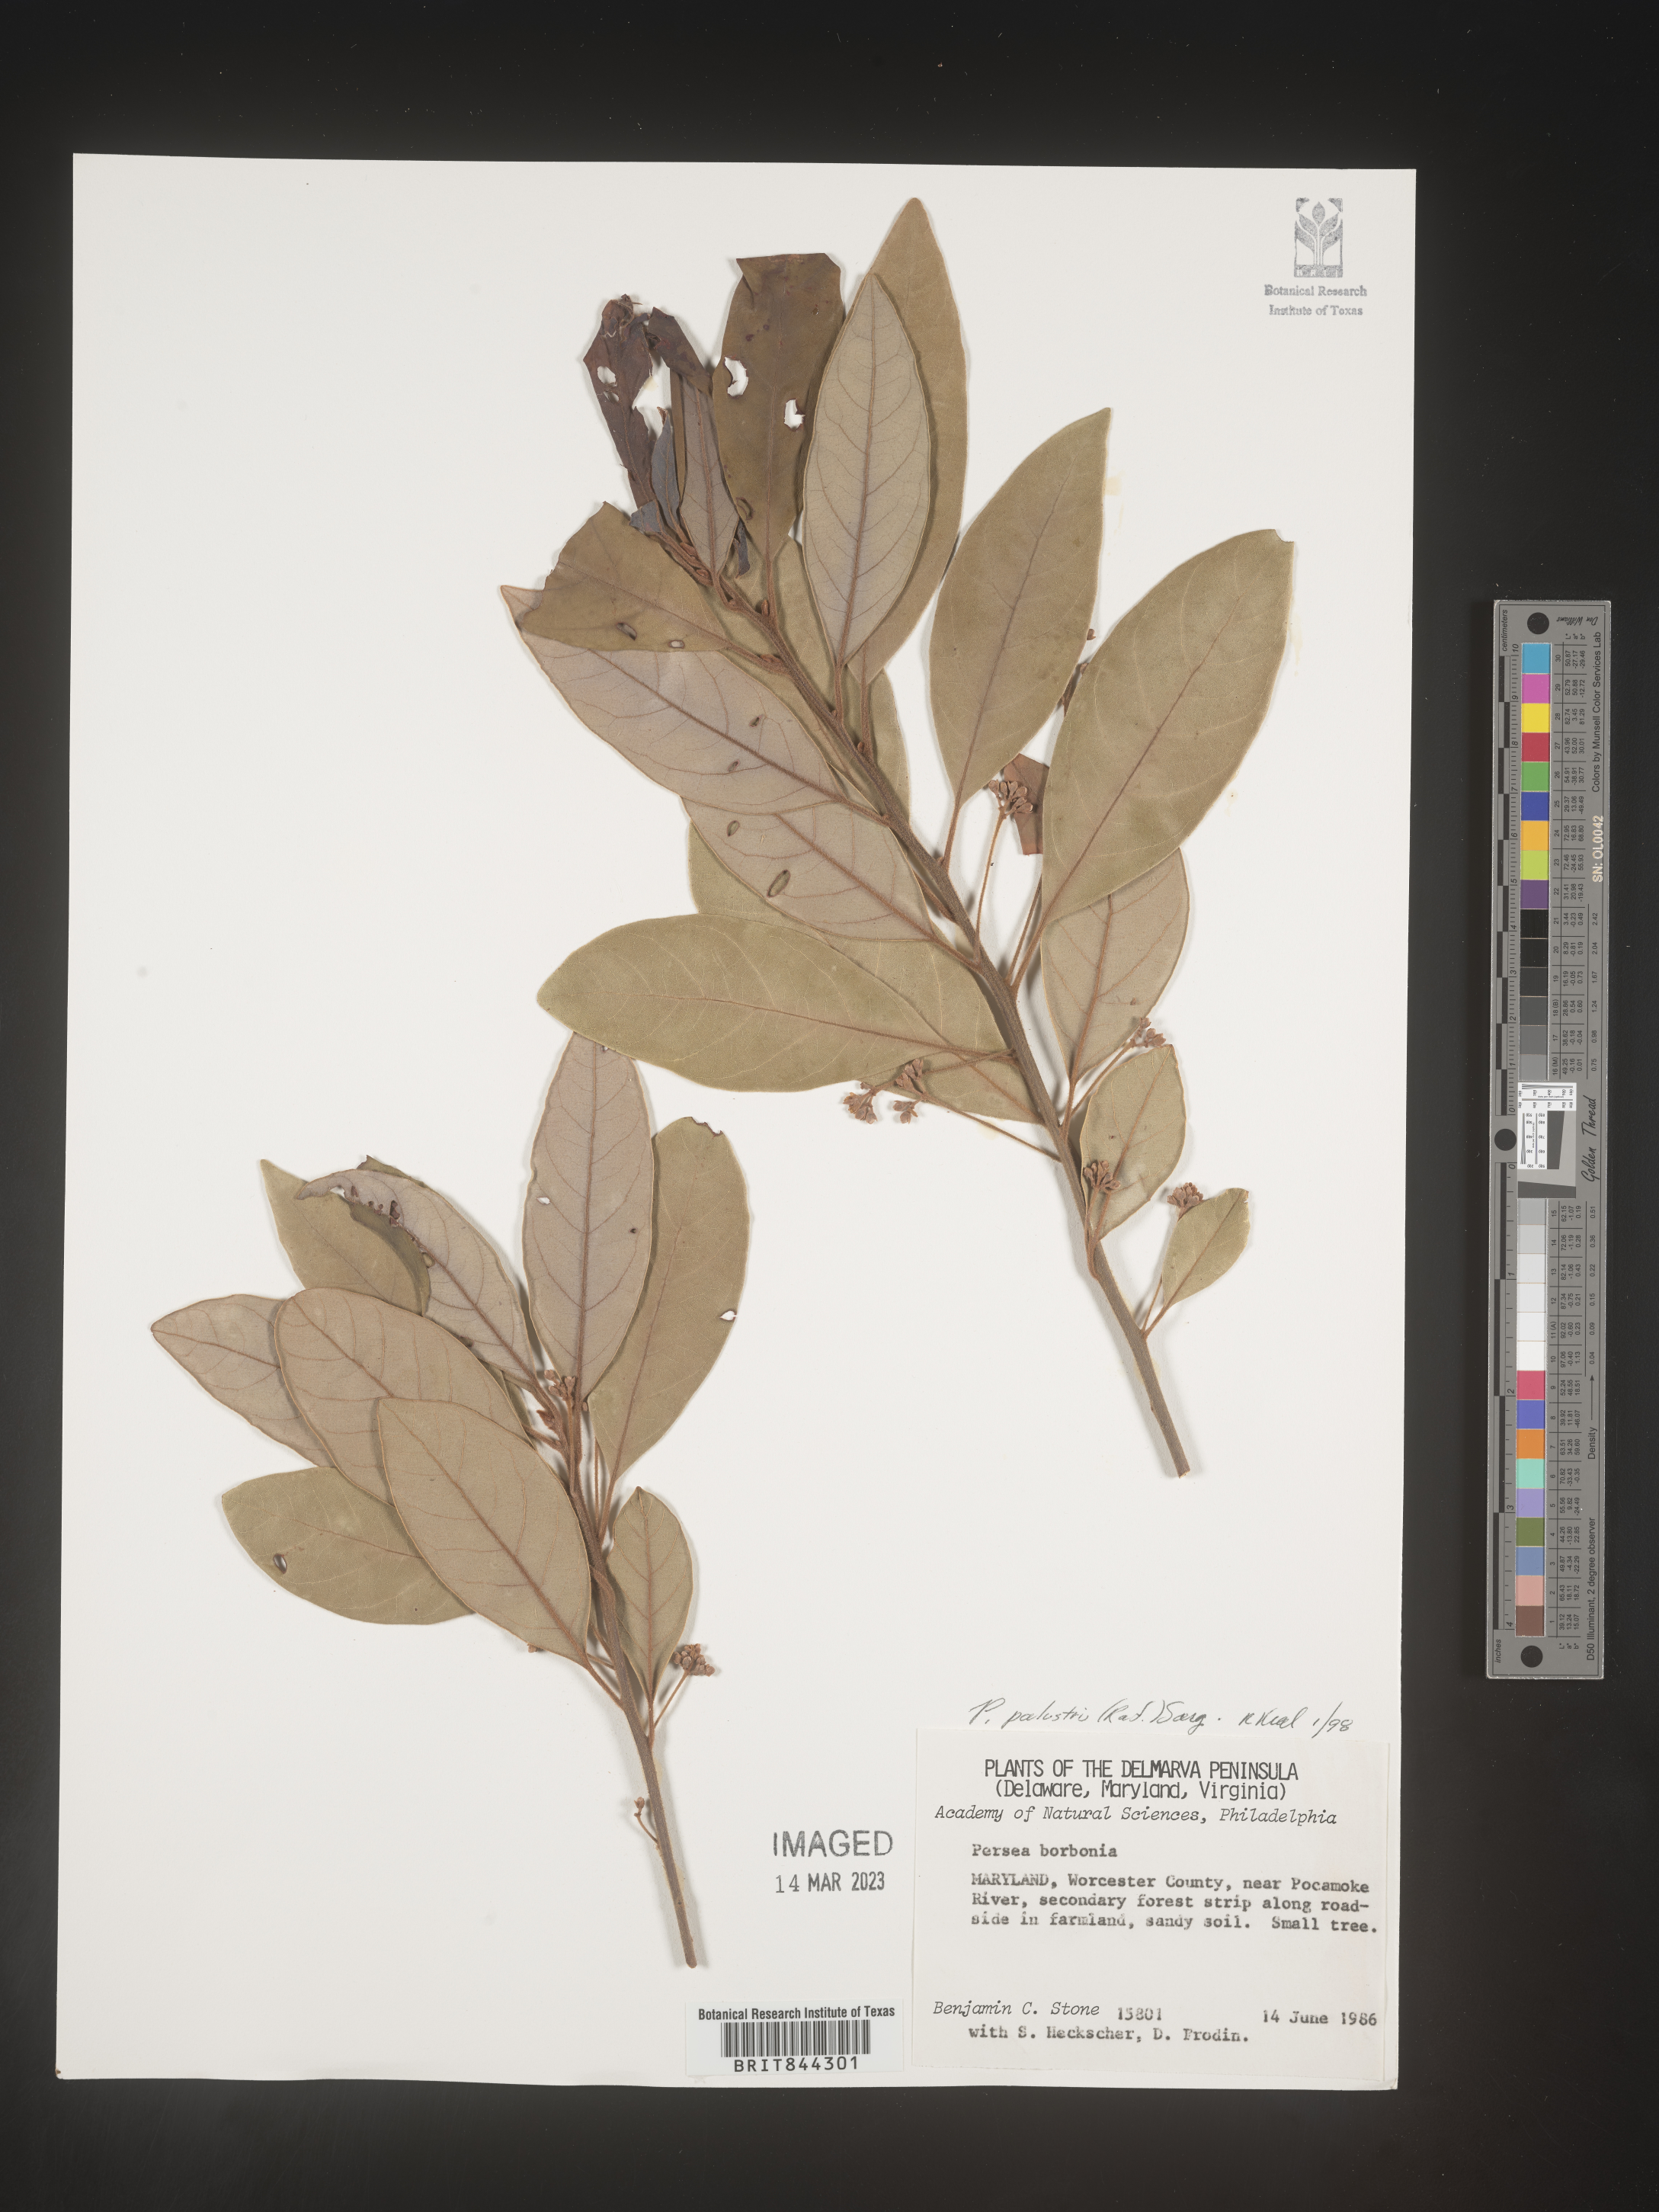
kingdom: Plantae
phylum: Tracheophyta
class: Magnoliopsida
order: Laurales
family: Lauraceae
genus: Persea
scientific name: Persea palustris
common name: Swampbay
